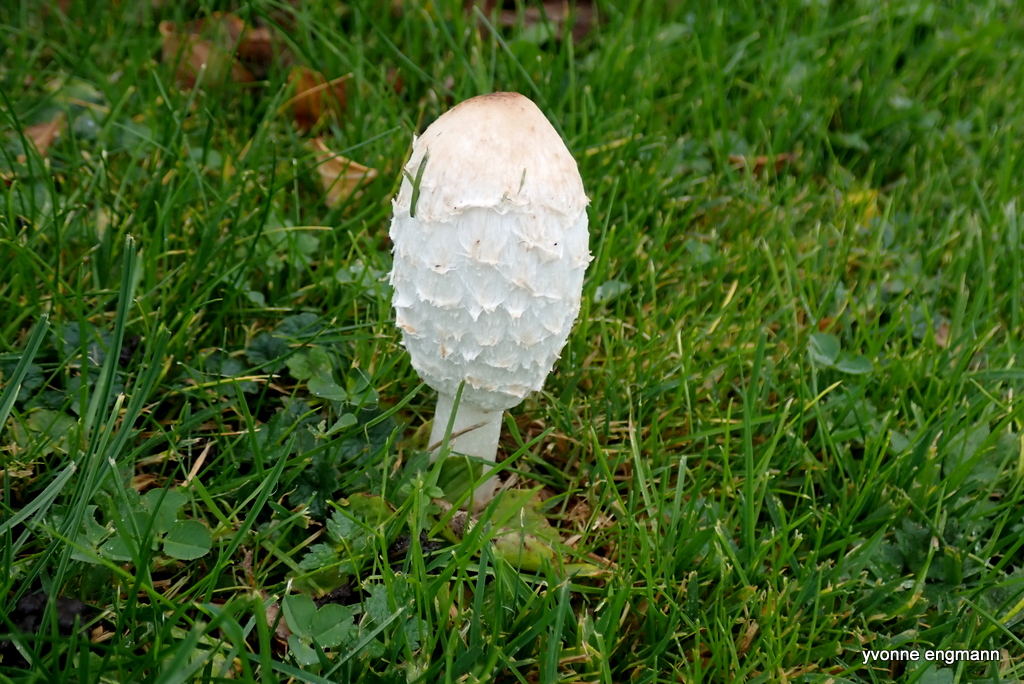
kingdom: Fungi
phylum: Basidiomycota
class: Agaricomycetes
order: Agaricales
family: Agaricaceae
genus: Coprinus
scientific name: Coprinus comatus
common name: stor parykhat
